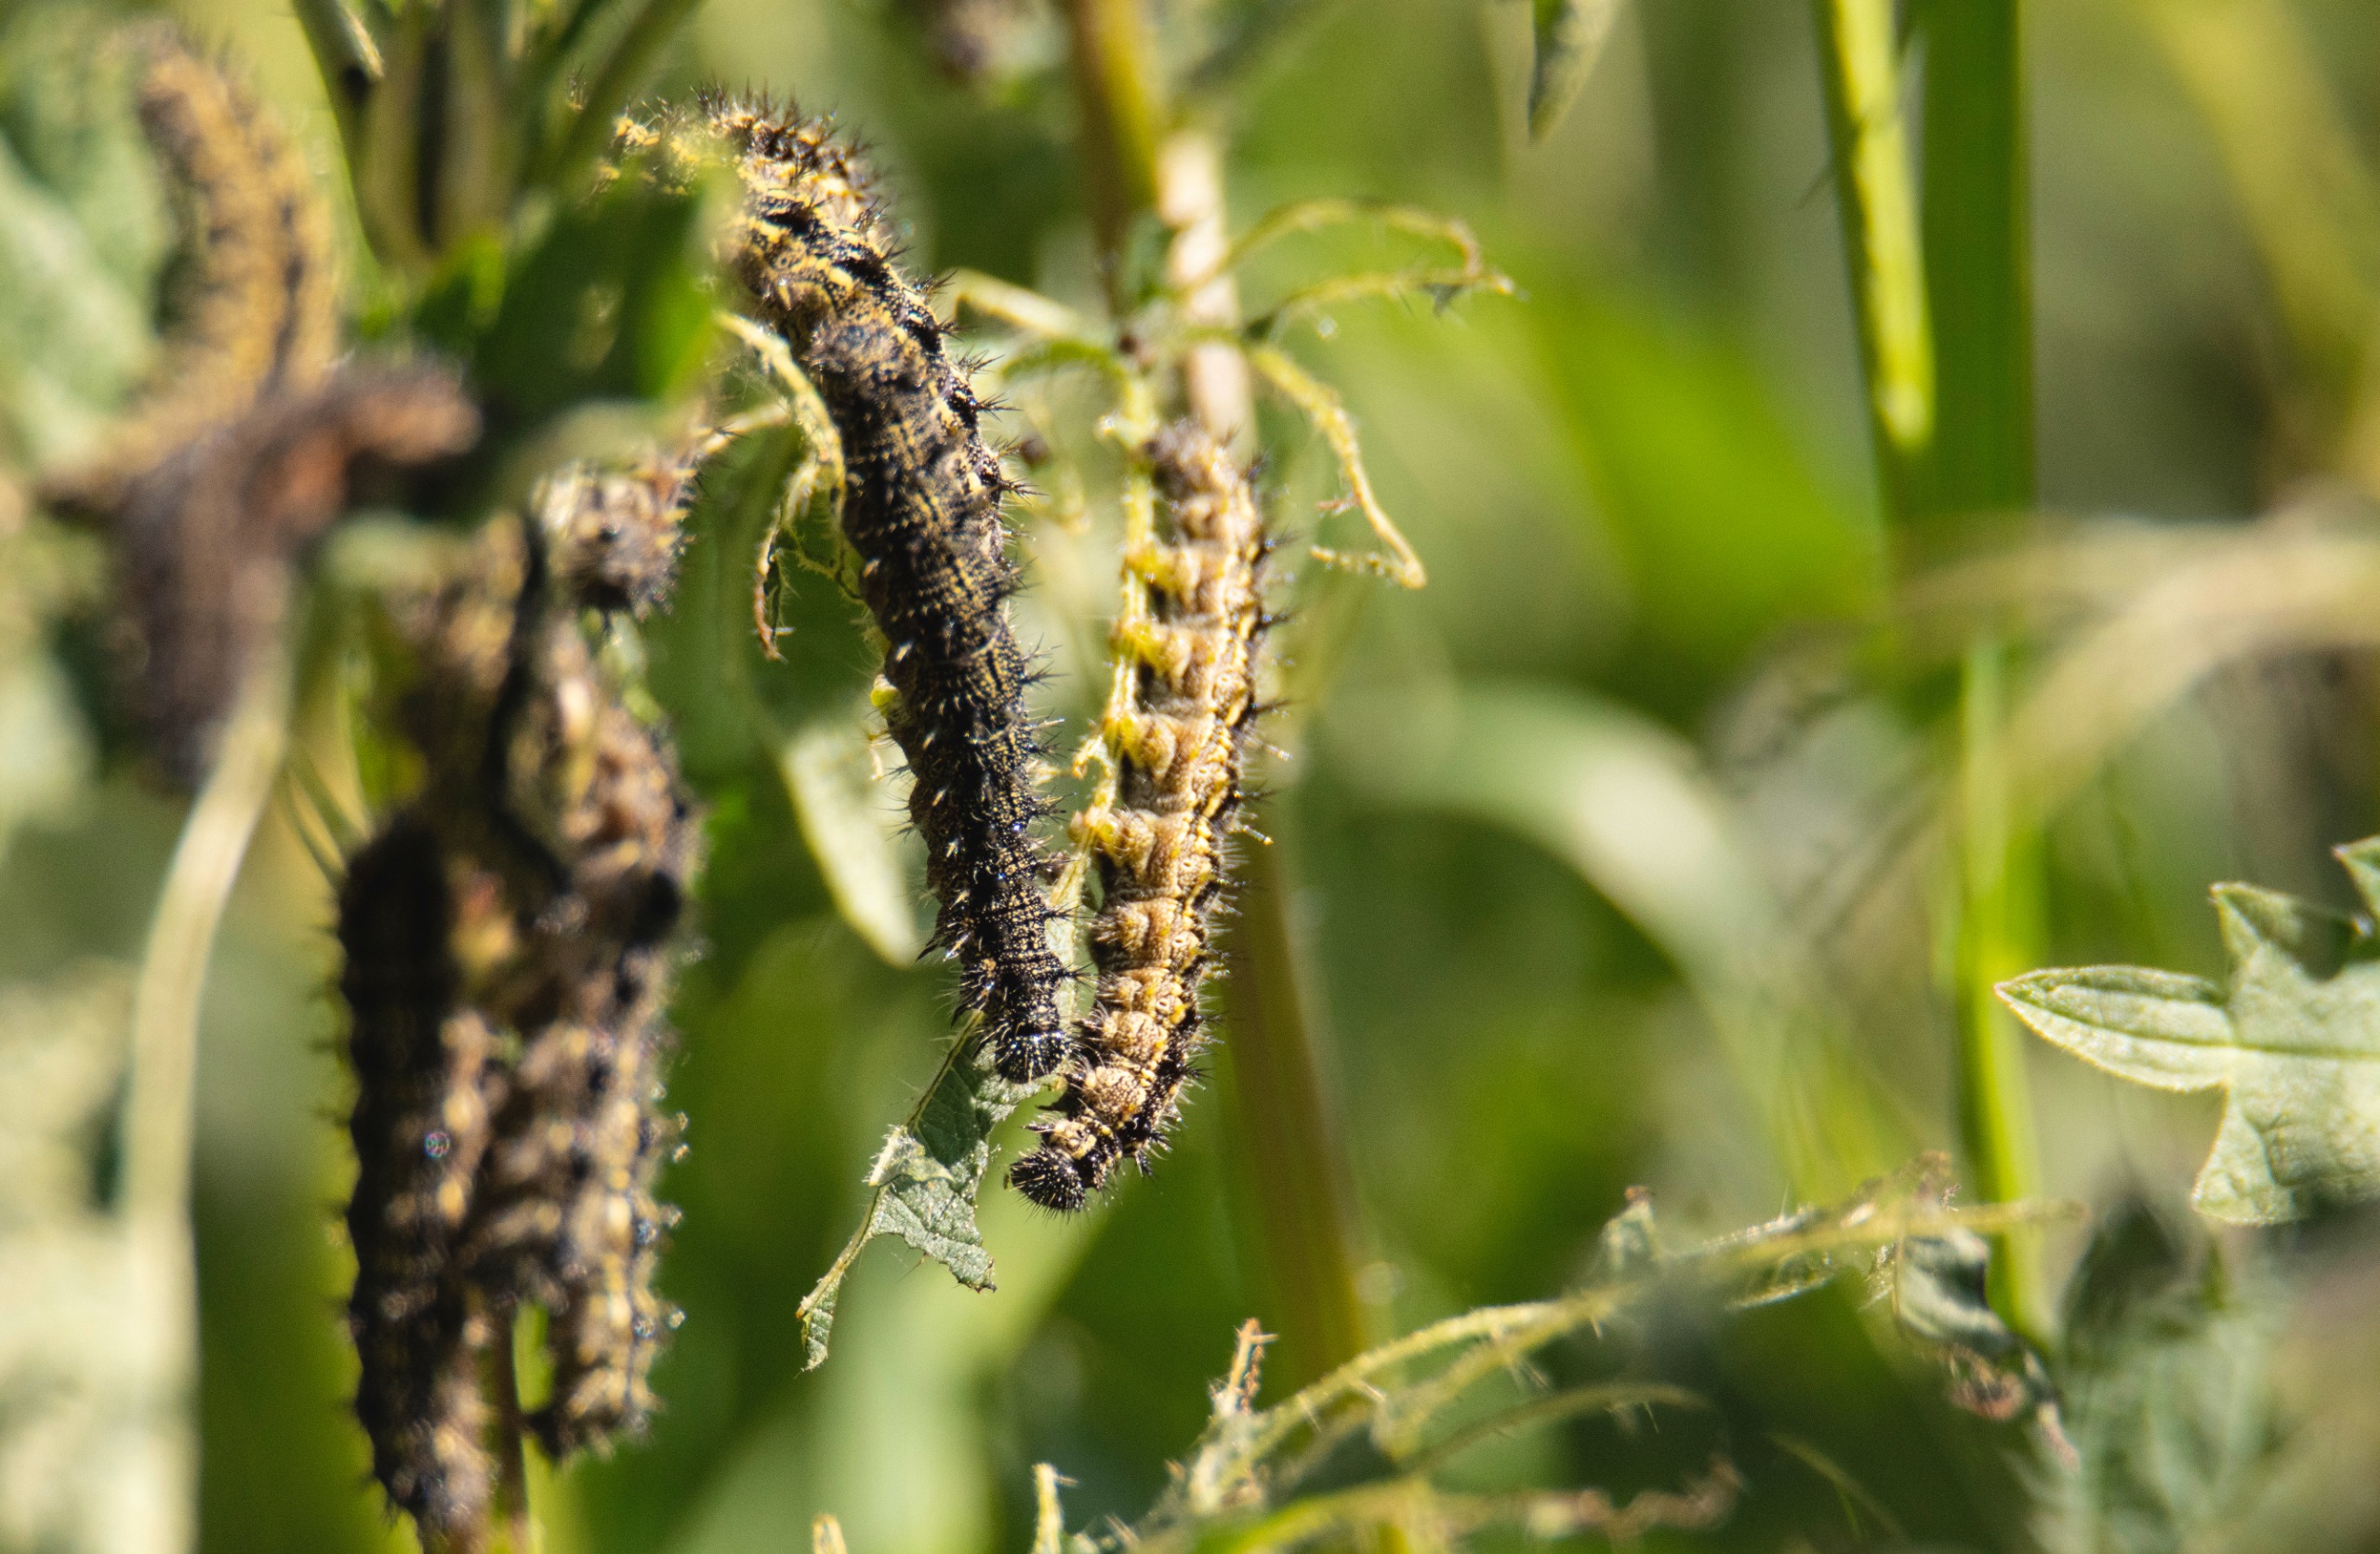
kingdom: Animalia
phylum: Arthropoda
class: Insecta
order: Lepidoptera
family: Nymphalidae
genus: Aglais
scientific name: Aglais urticae
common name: Nældens takvinge
